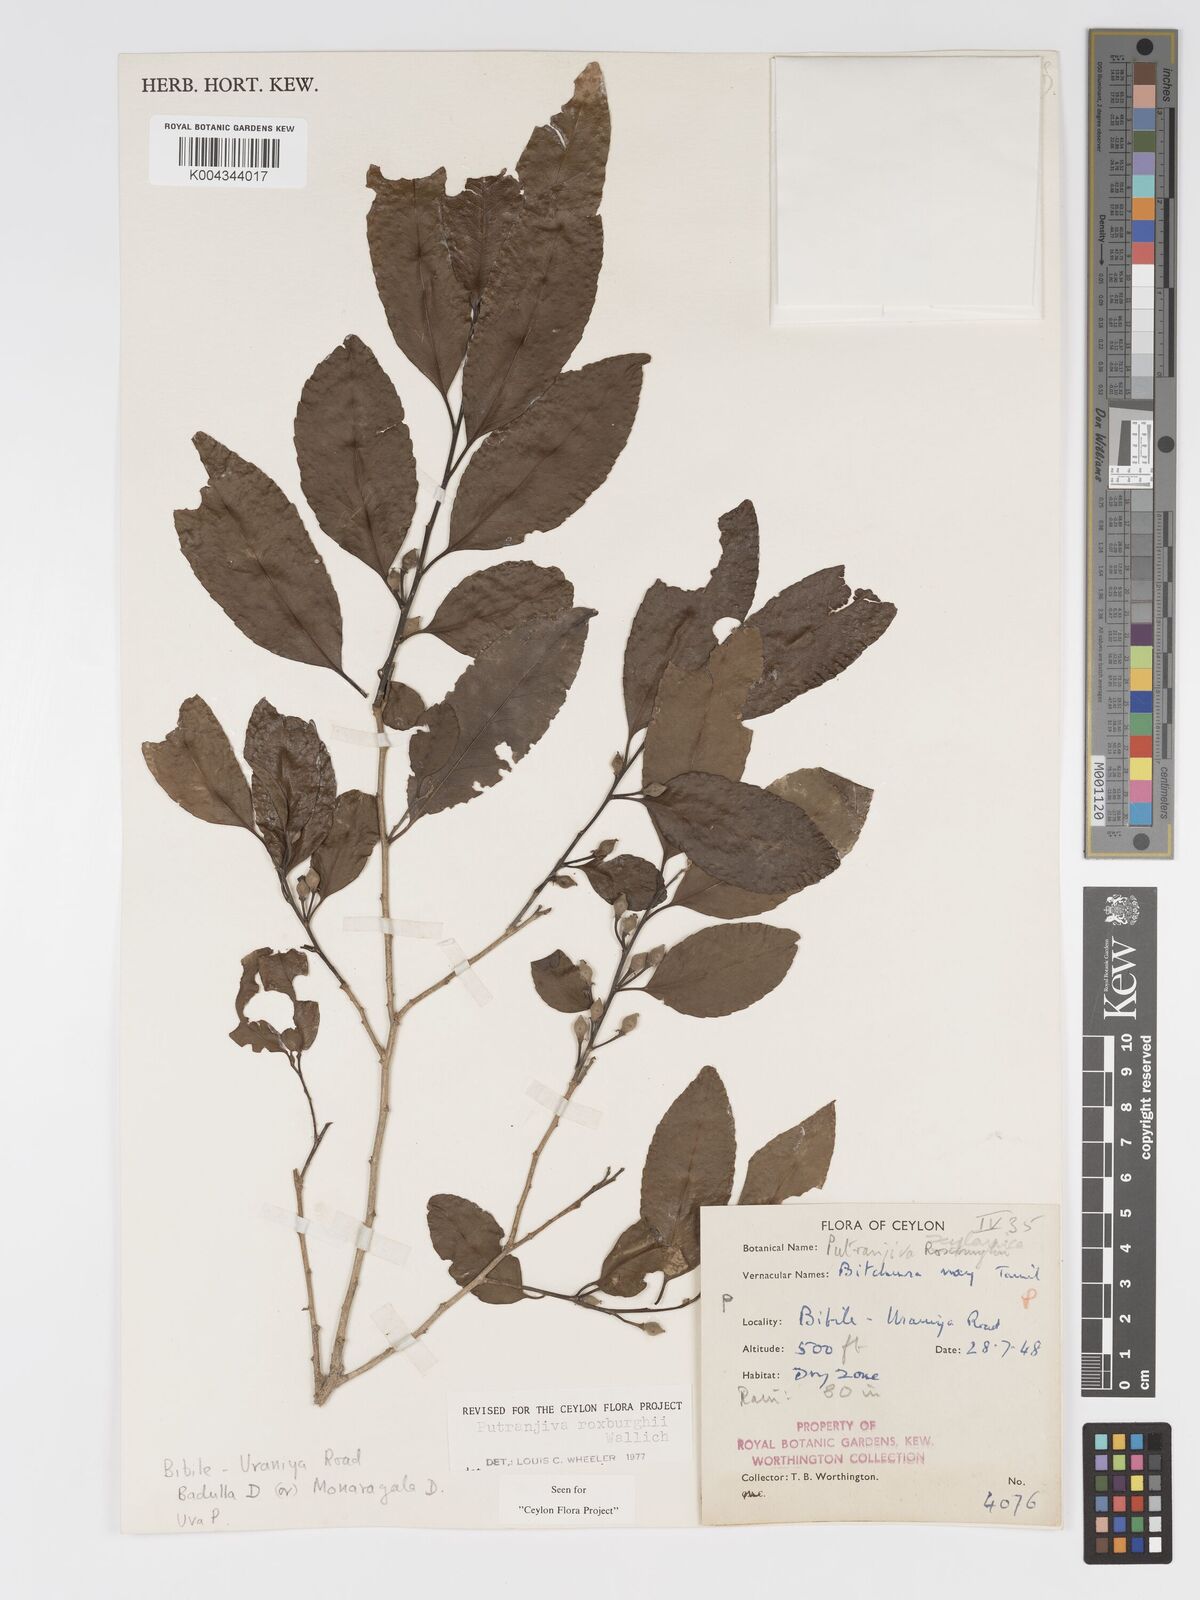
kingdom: Plantae
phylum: Tracheophyta
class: Magnoliopsida
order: Malpighiales
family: Putranjivaceae
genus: Putranjiva
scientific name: Putranjiva roxburghii
